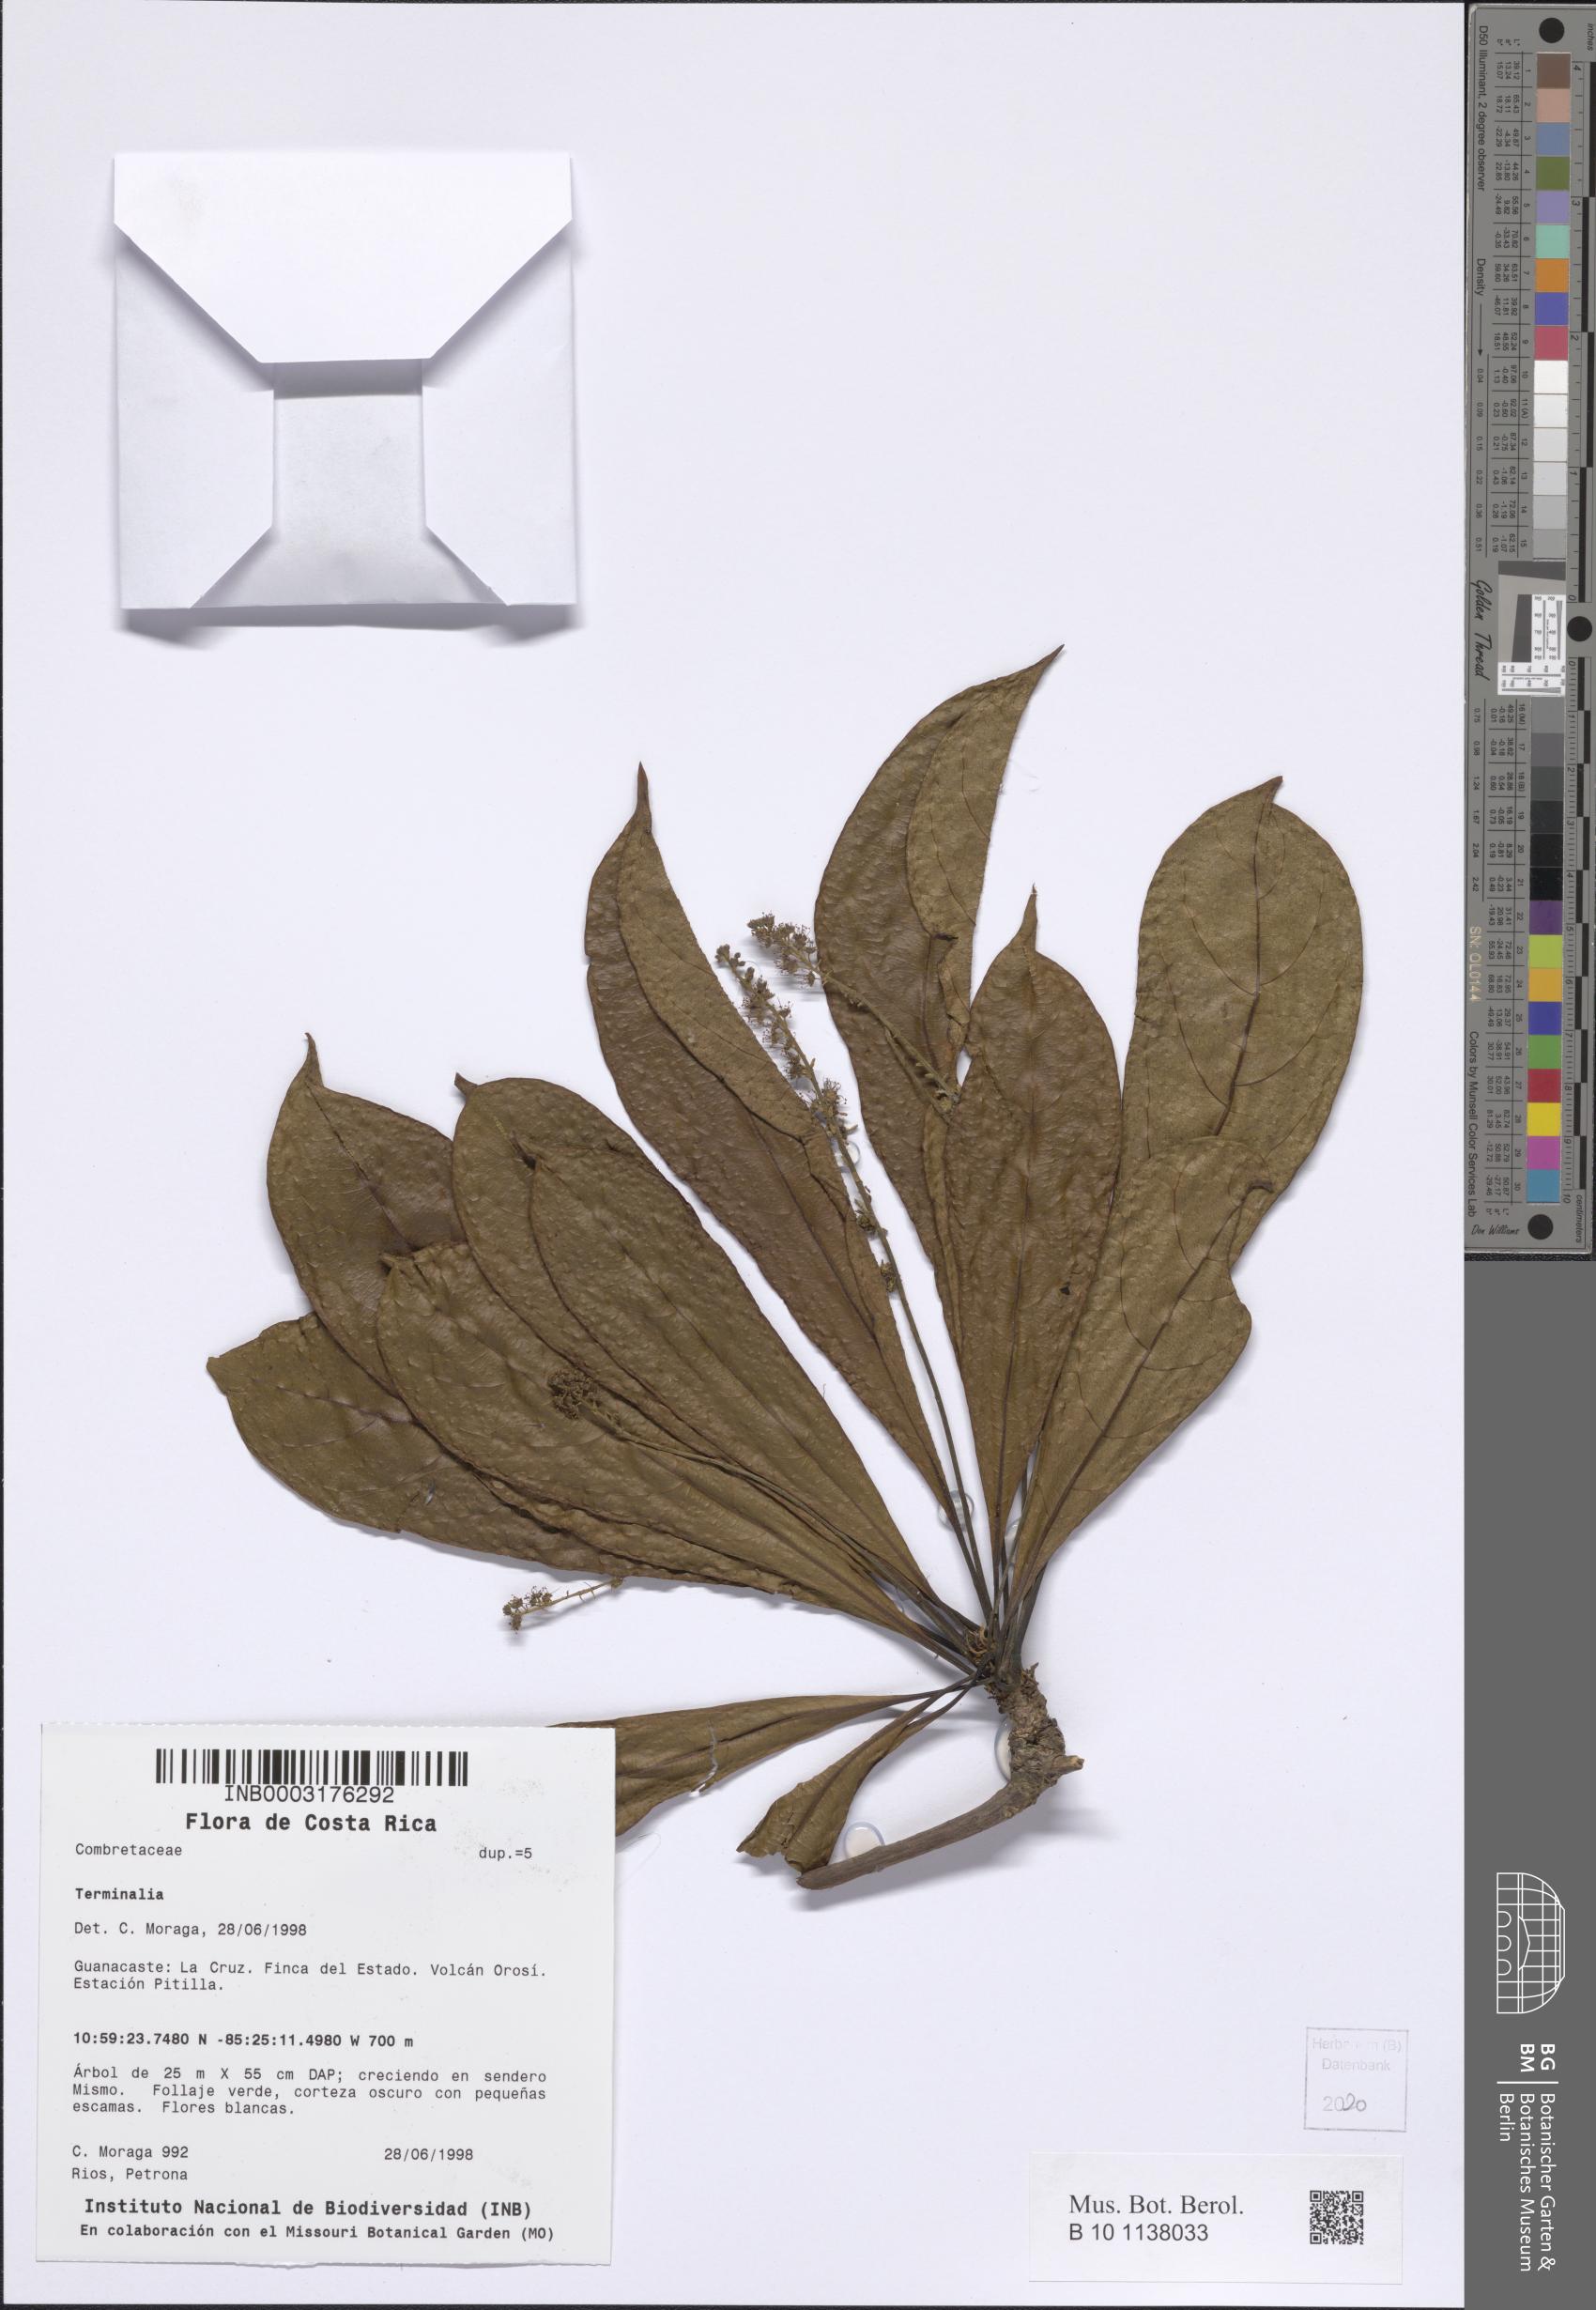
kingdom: Plantae
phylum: Tracheophyta
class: Magnoliopsida
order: Myrtales
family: Combretaceae
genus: Terminalia
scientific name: Terminalia
